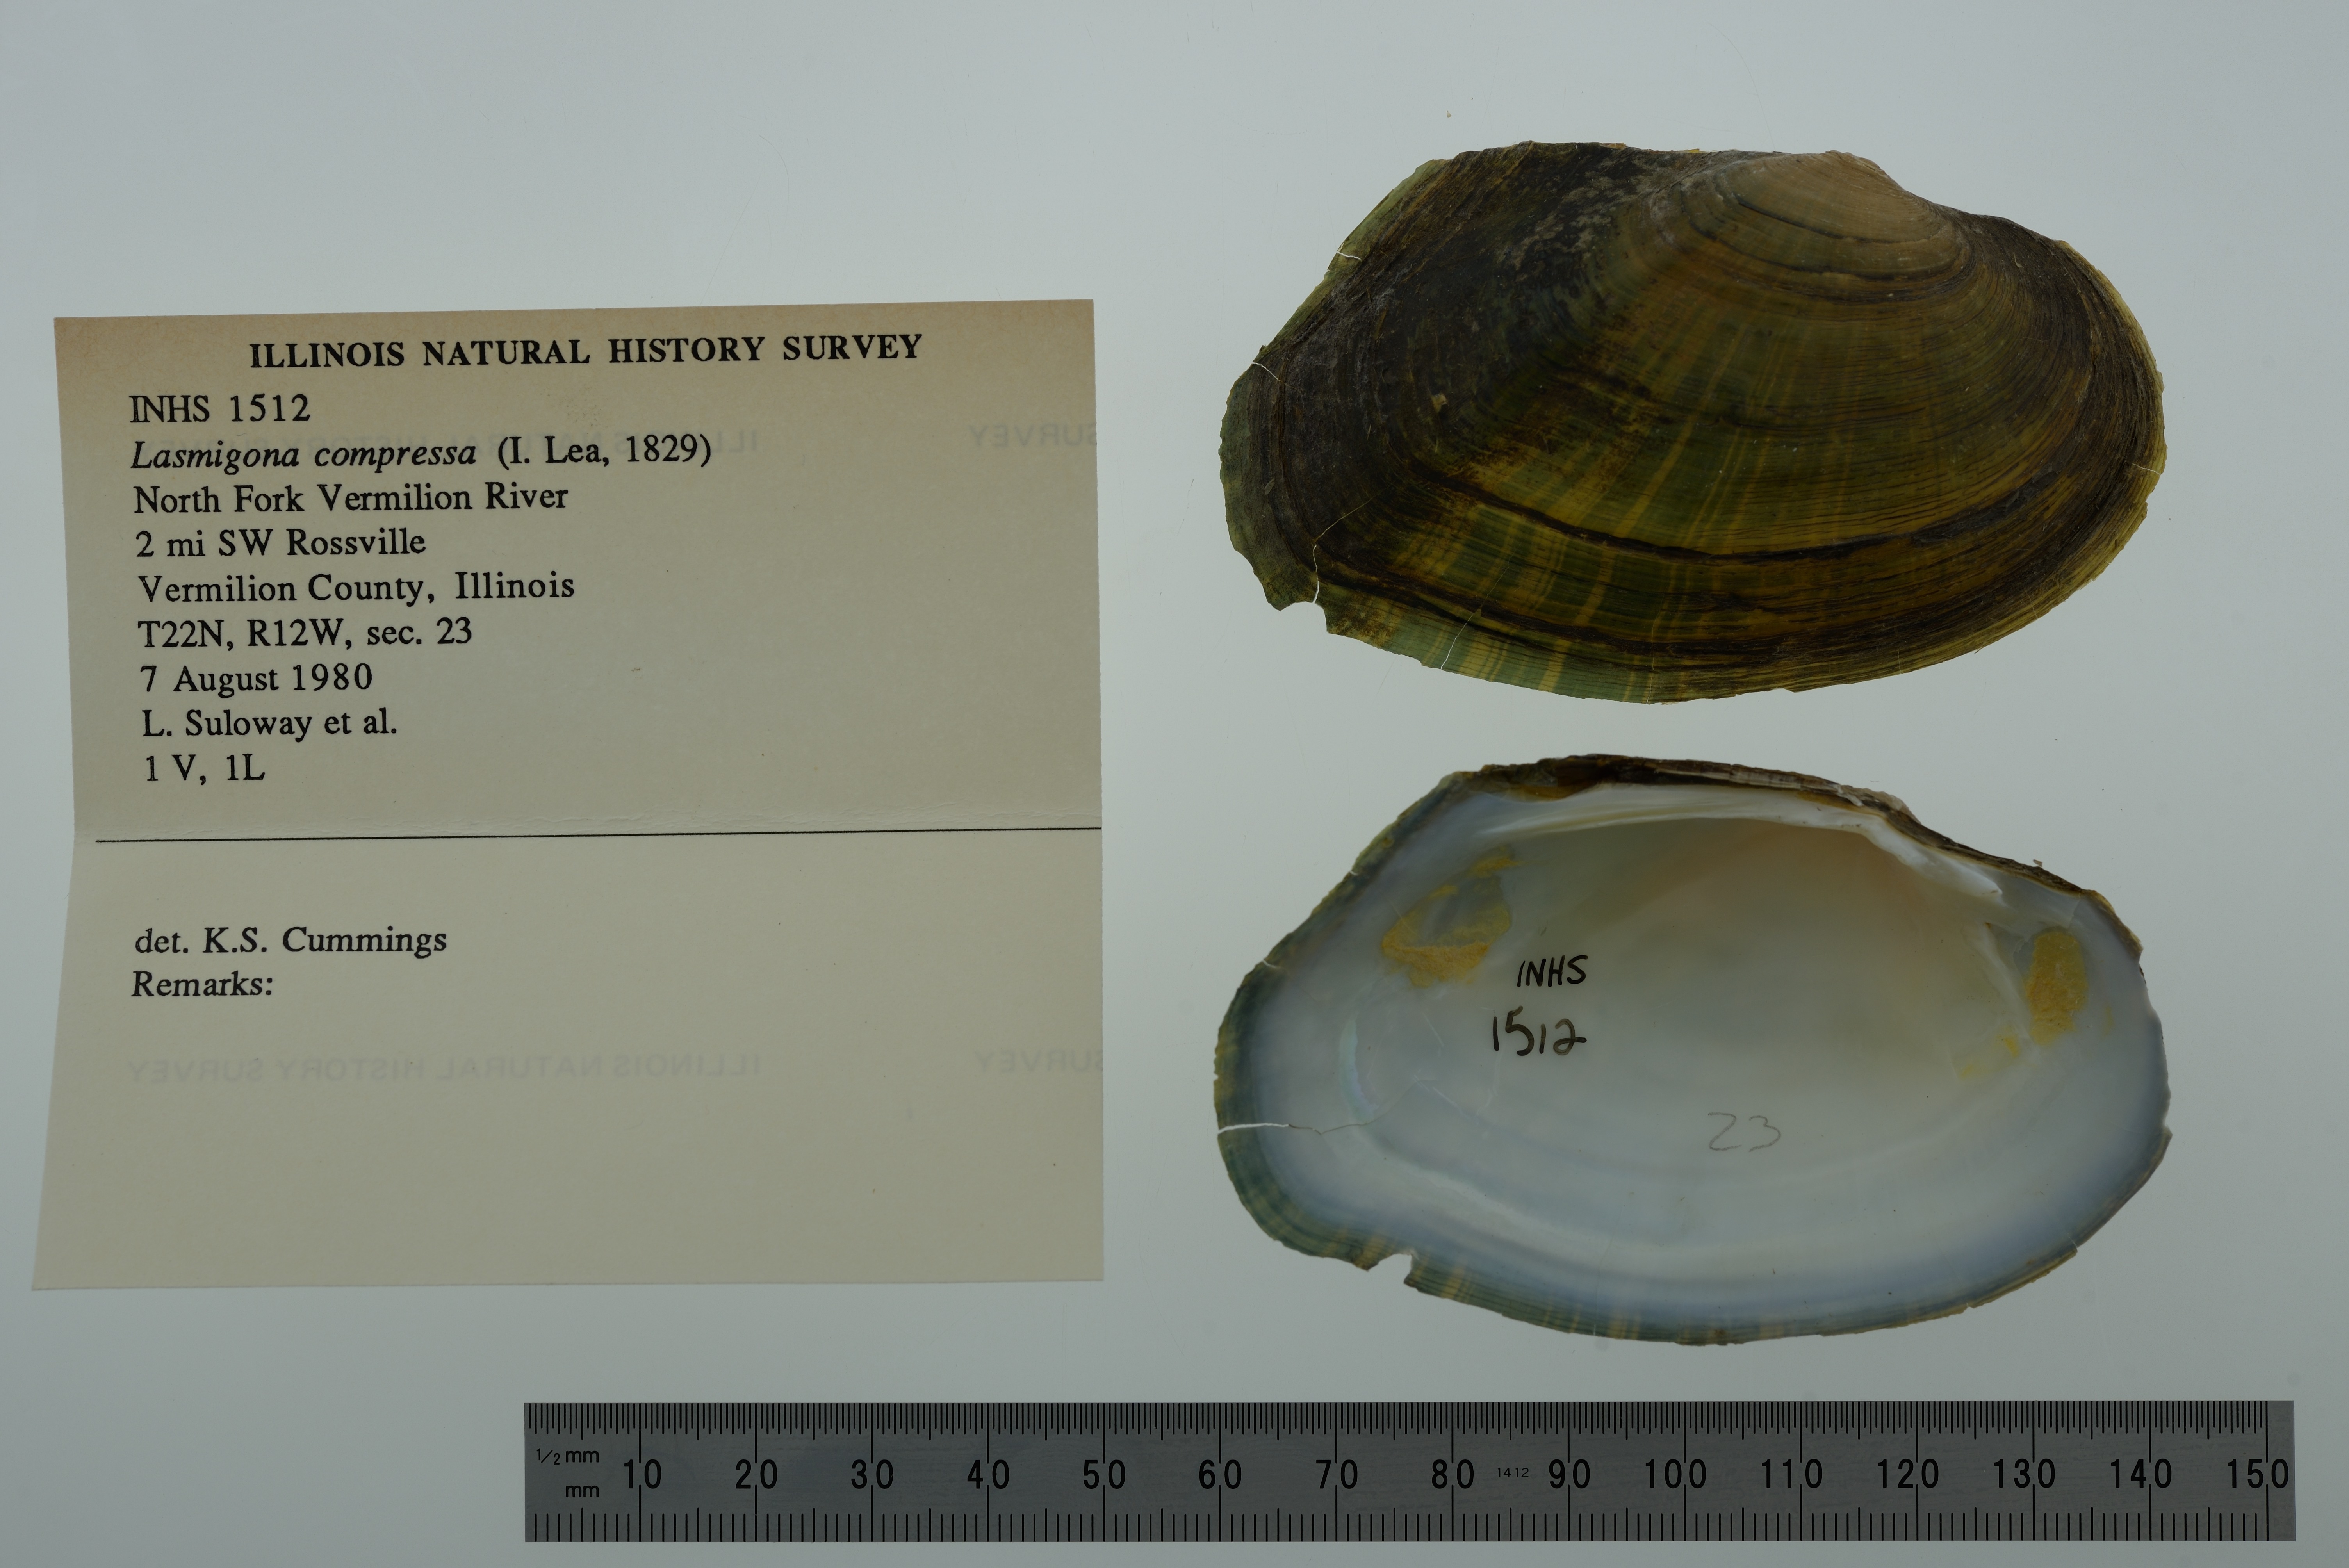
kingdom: Animalia
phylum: Mollusca
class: Bivalvia
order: Unionida
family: Unionidae
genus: Lasmigona
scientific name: Lasmigona compressa
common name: Creek heelsplitter
